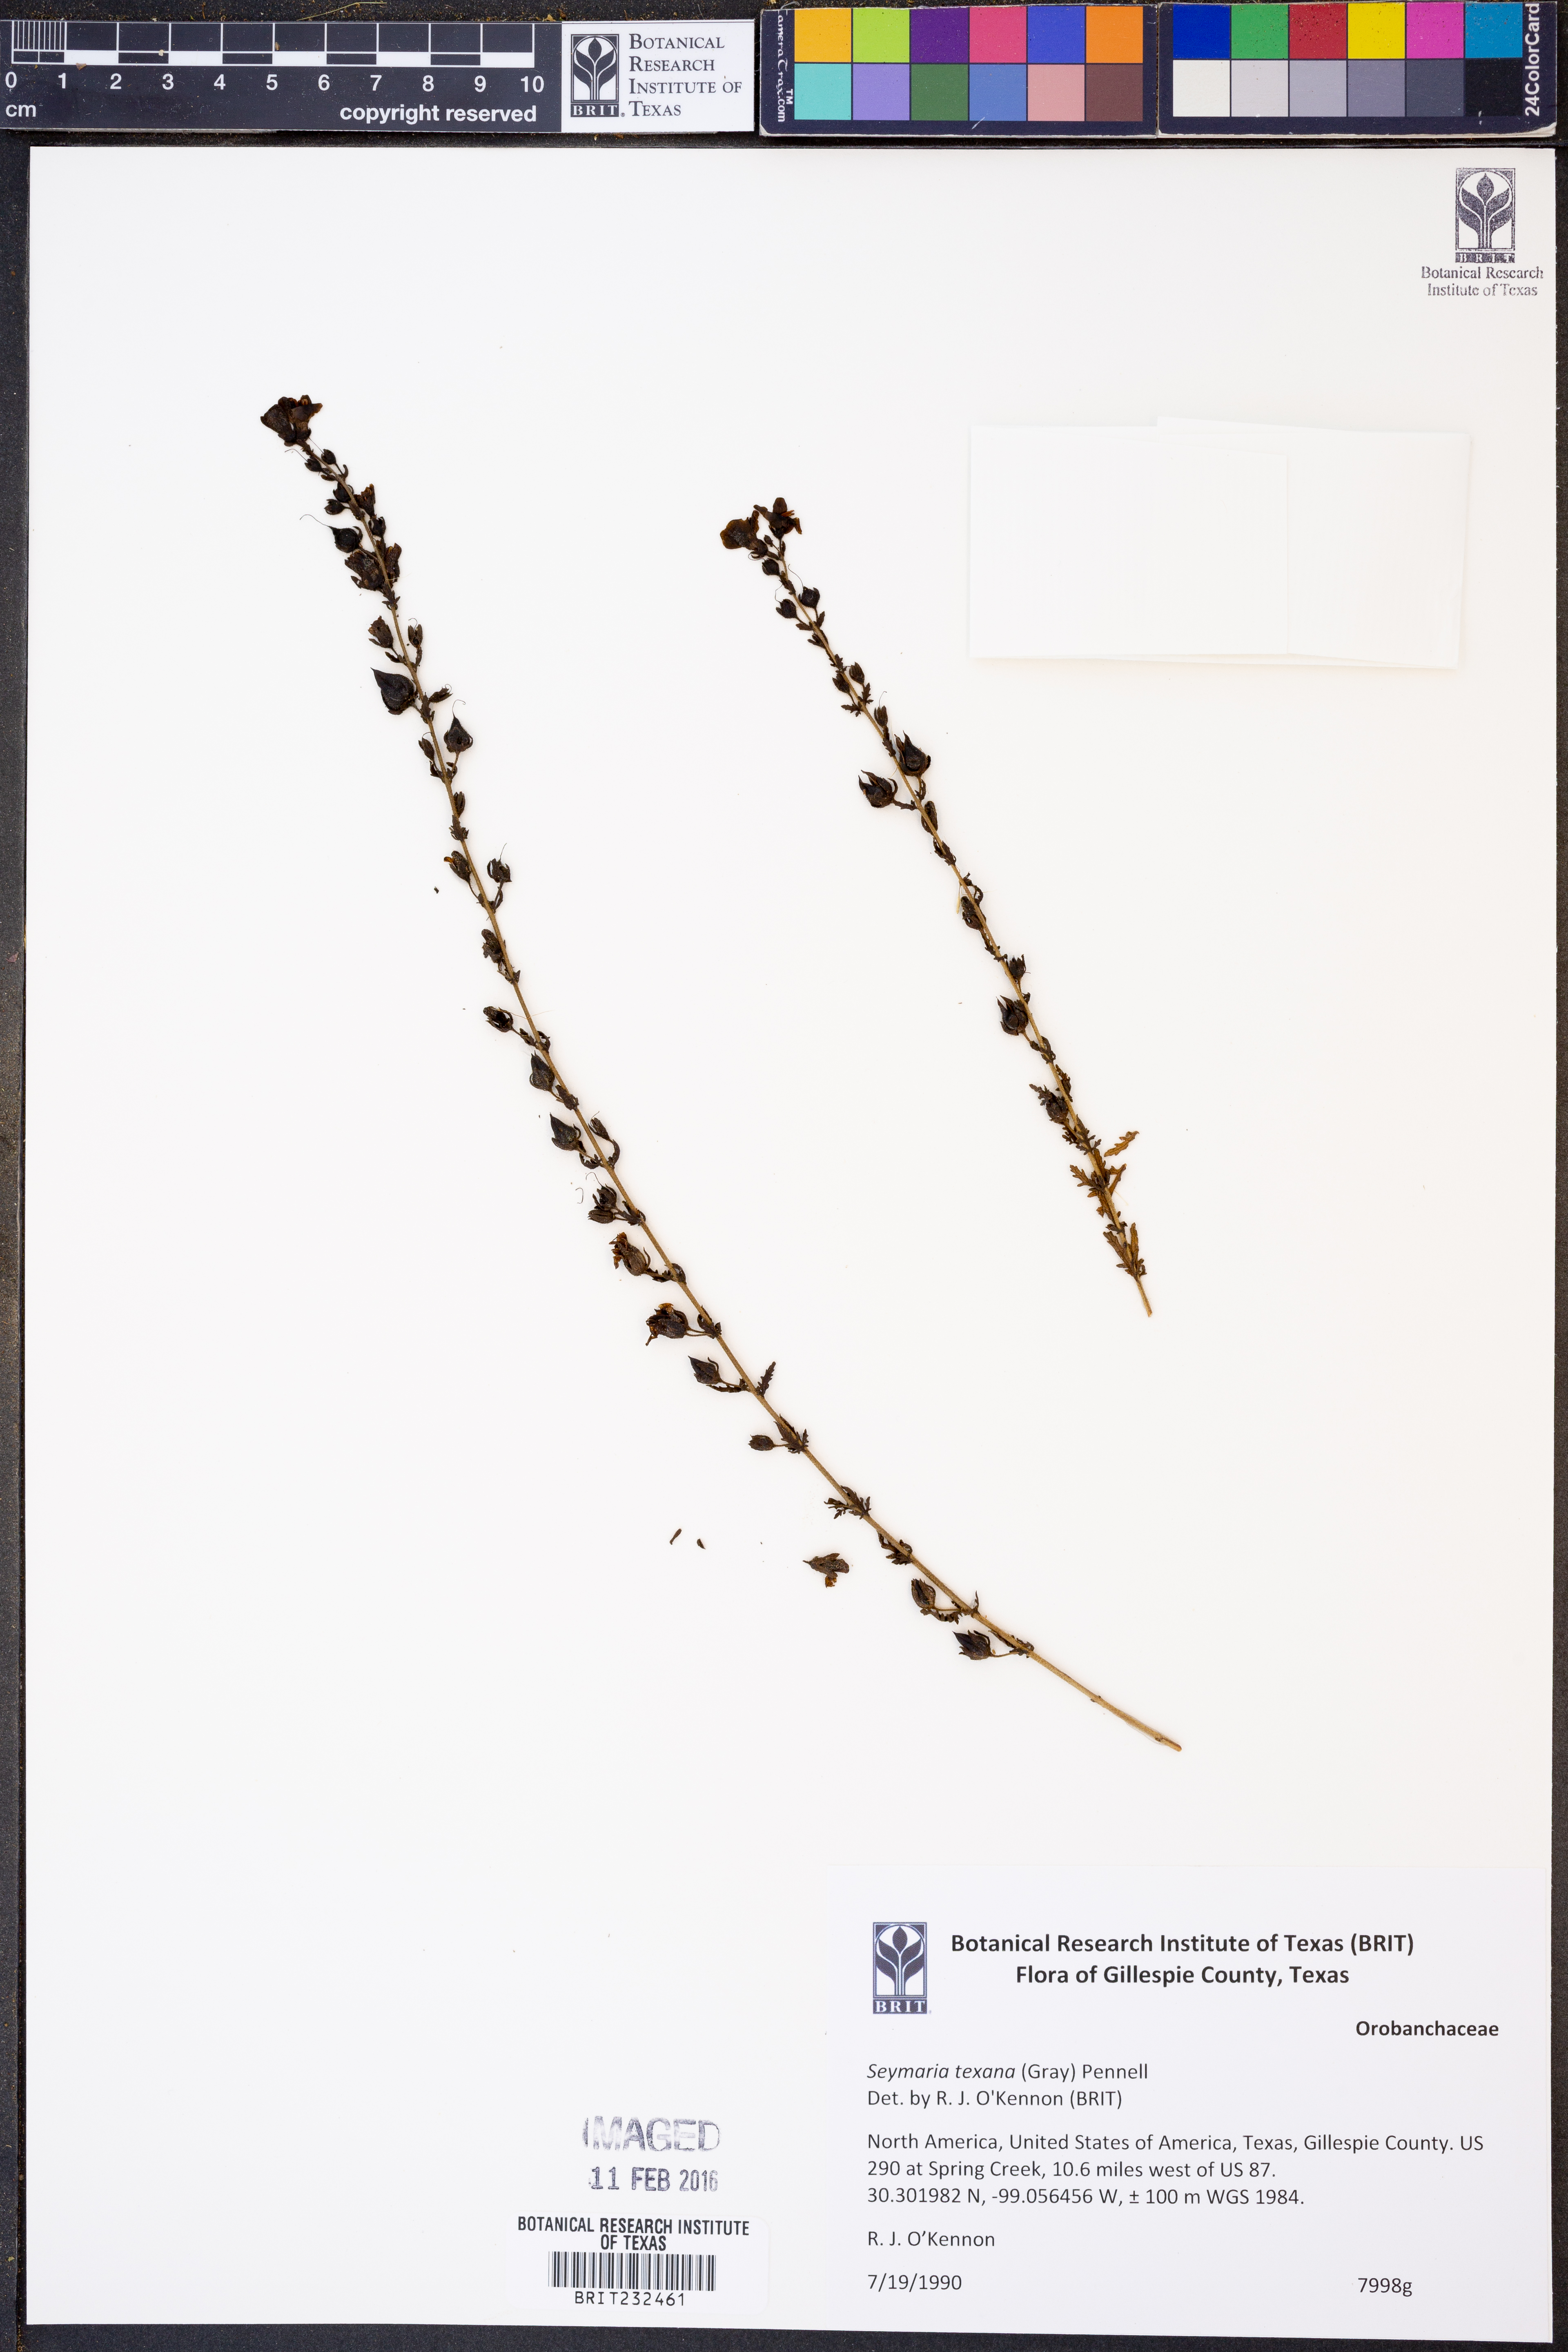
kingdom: Plantae
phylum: Tracheophyta
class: Magnoliopsida
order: Lamiales
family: Orobanchaceae
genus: Seymeria
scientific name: Seymeria bipinnatisecta
